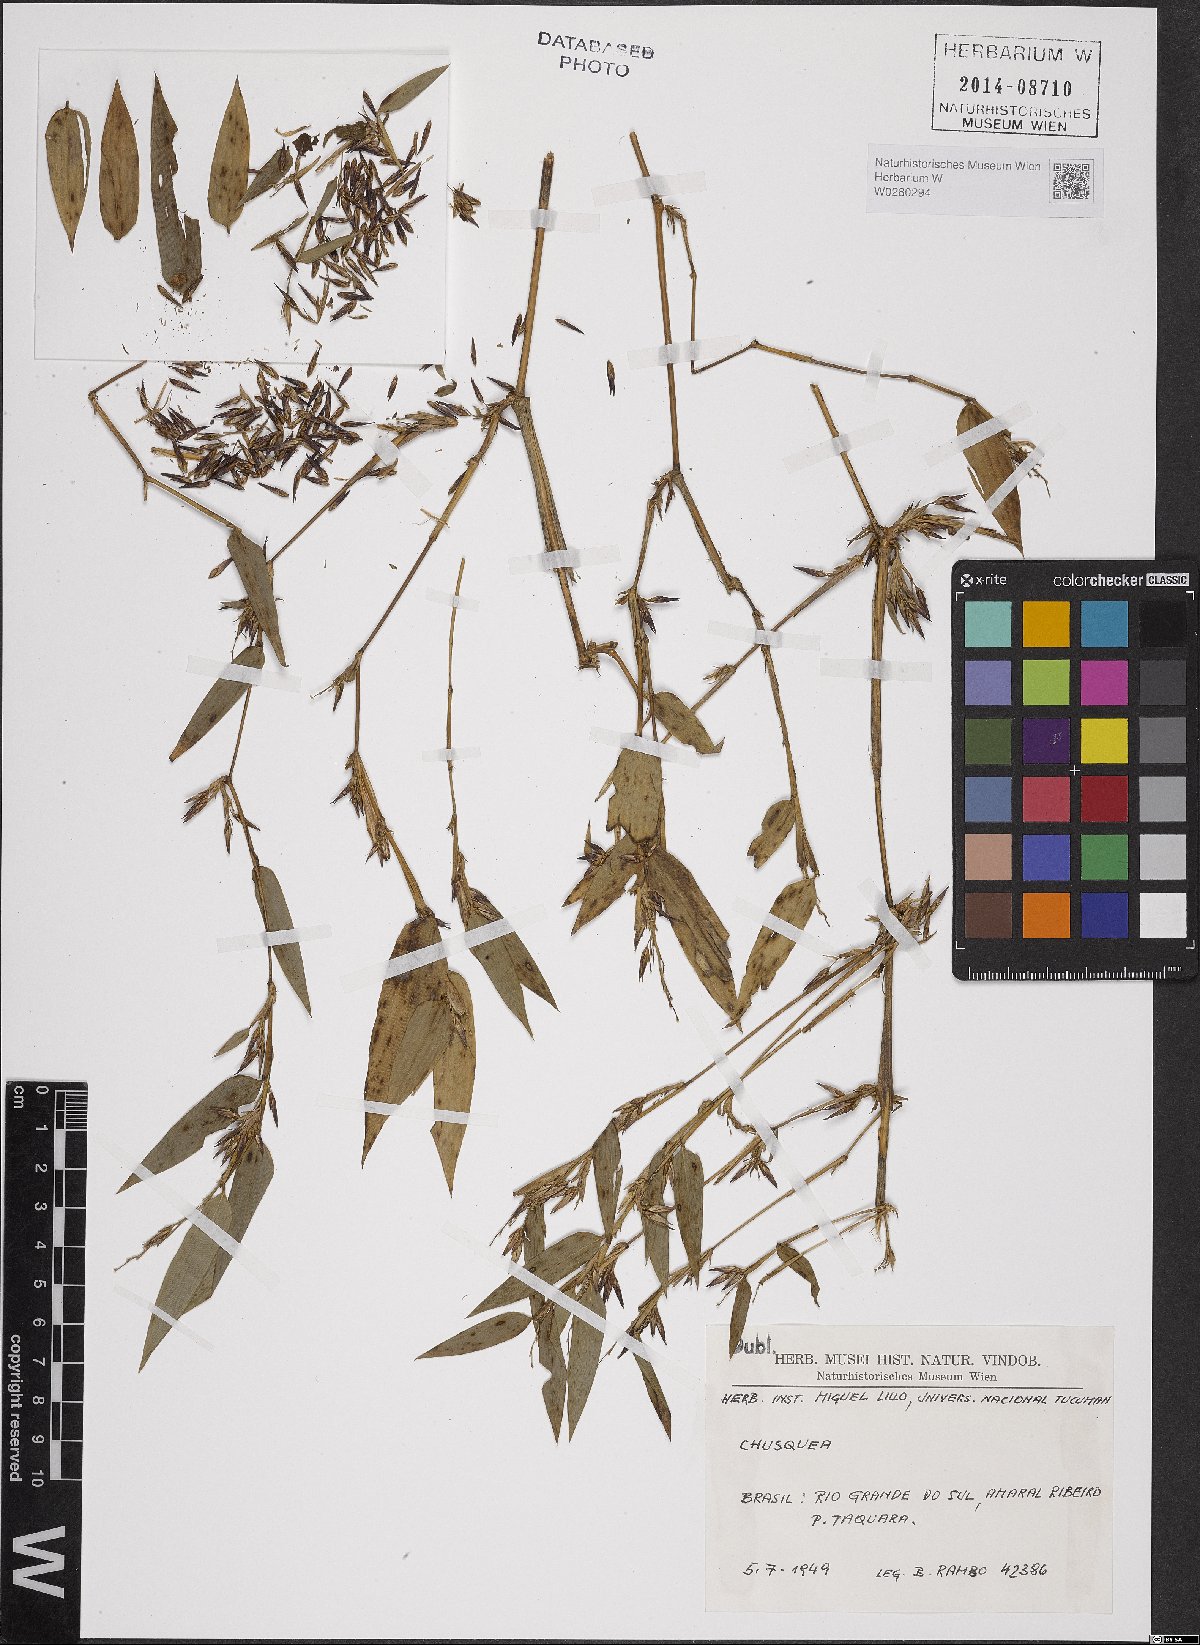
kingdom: Plantae
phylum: Tracheophyta
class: Liliopsida
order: Poales
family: Poaceae
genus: Chusquea
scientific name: Chusquea
